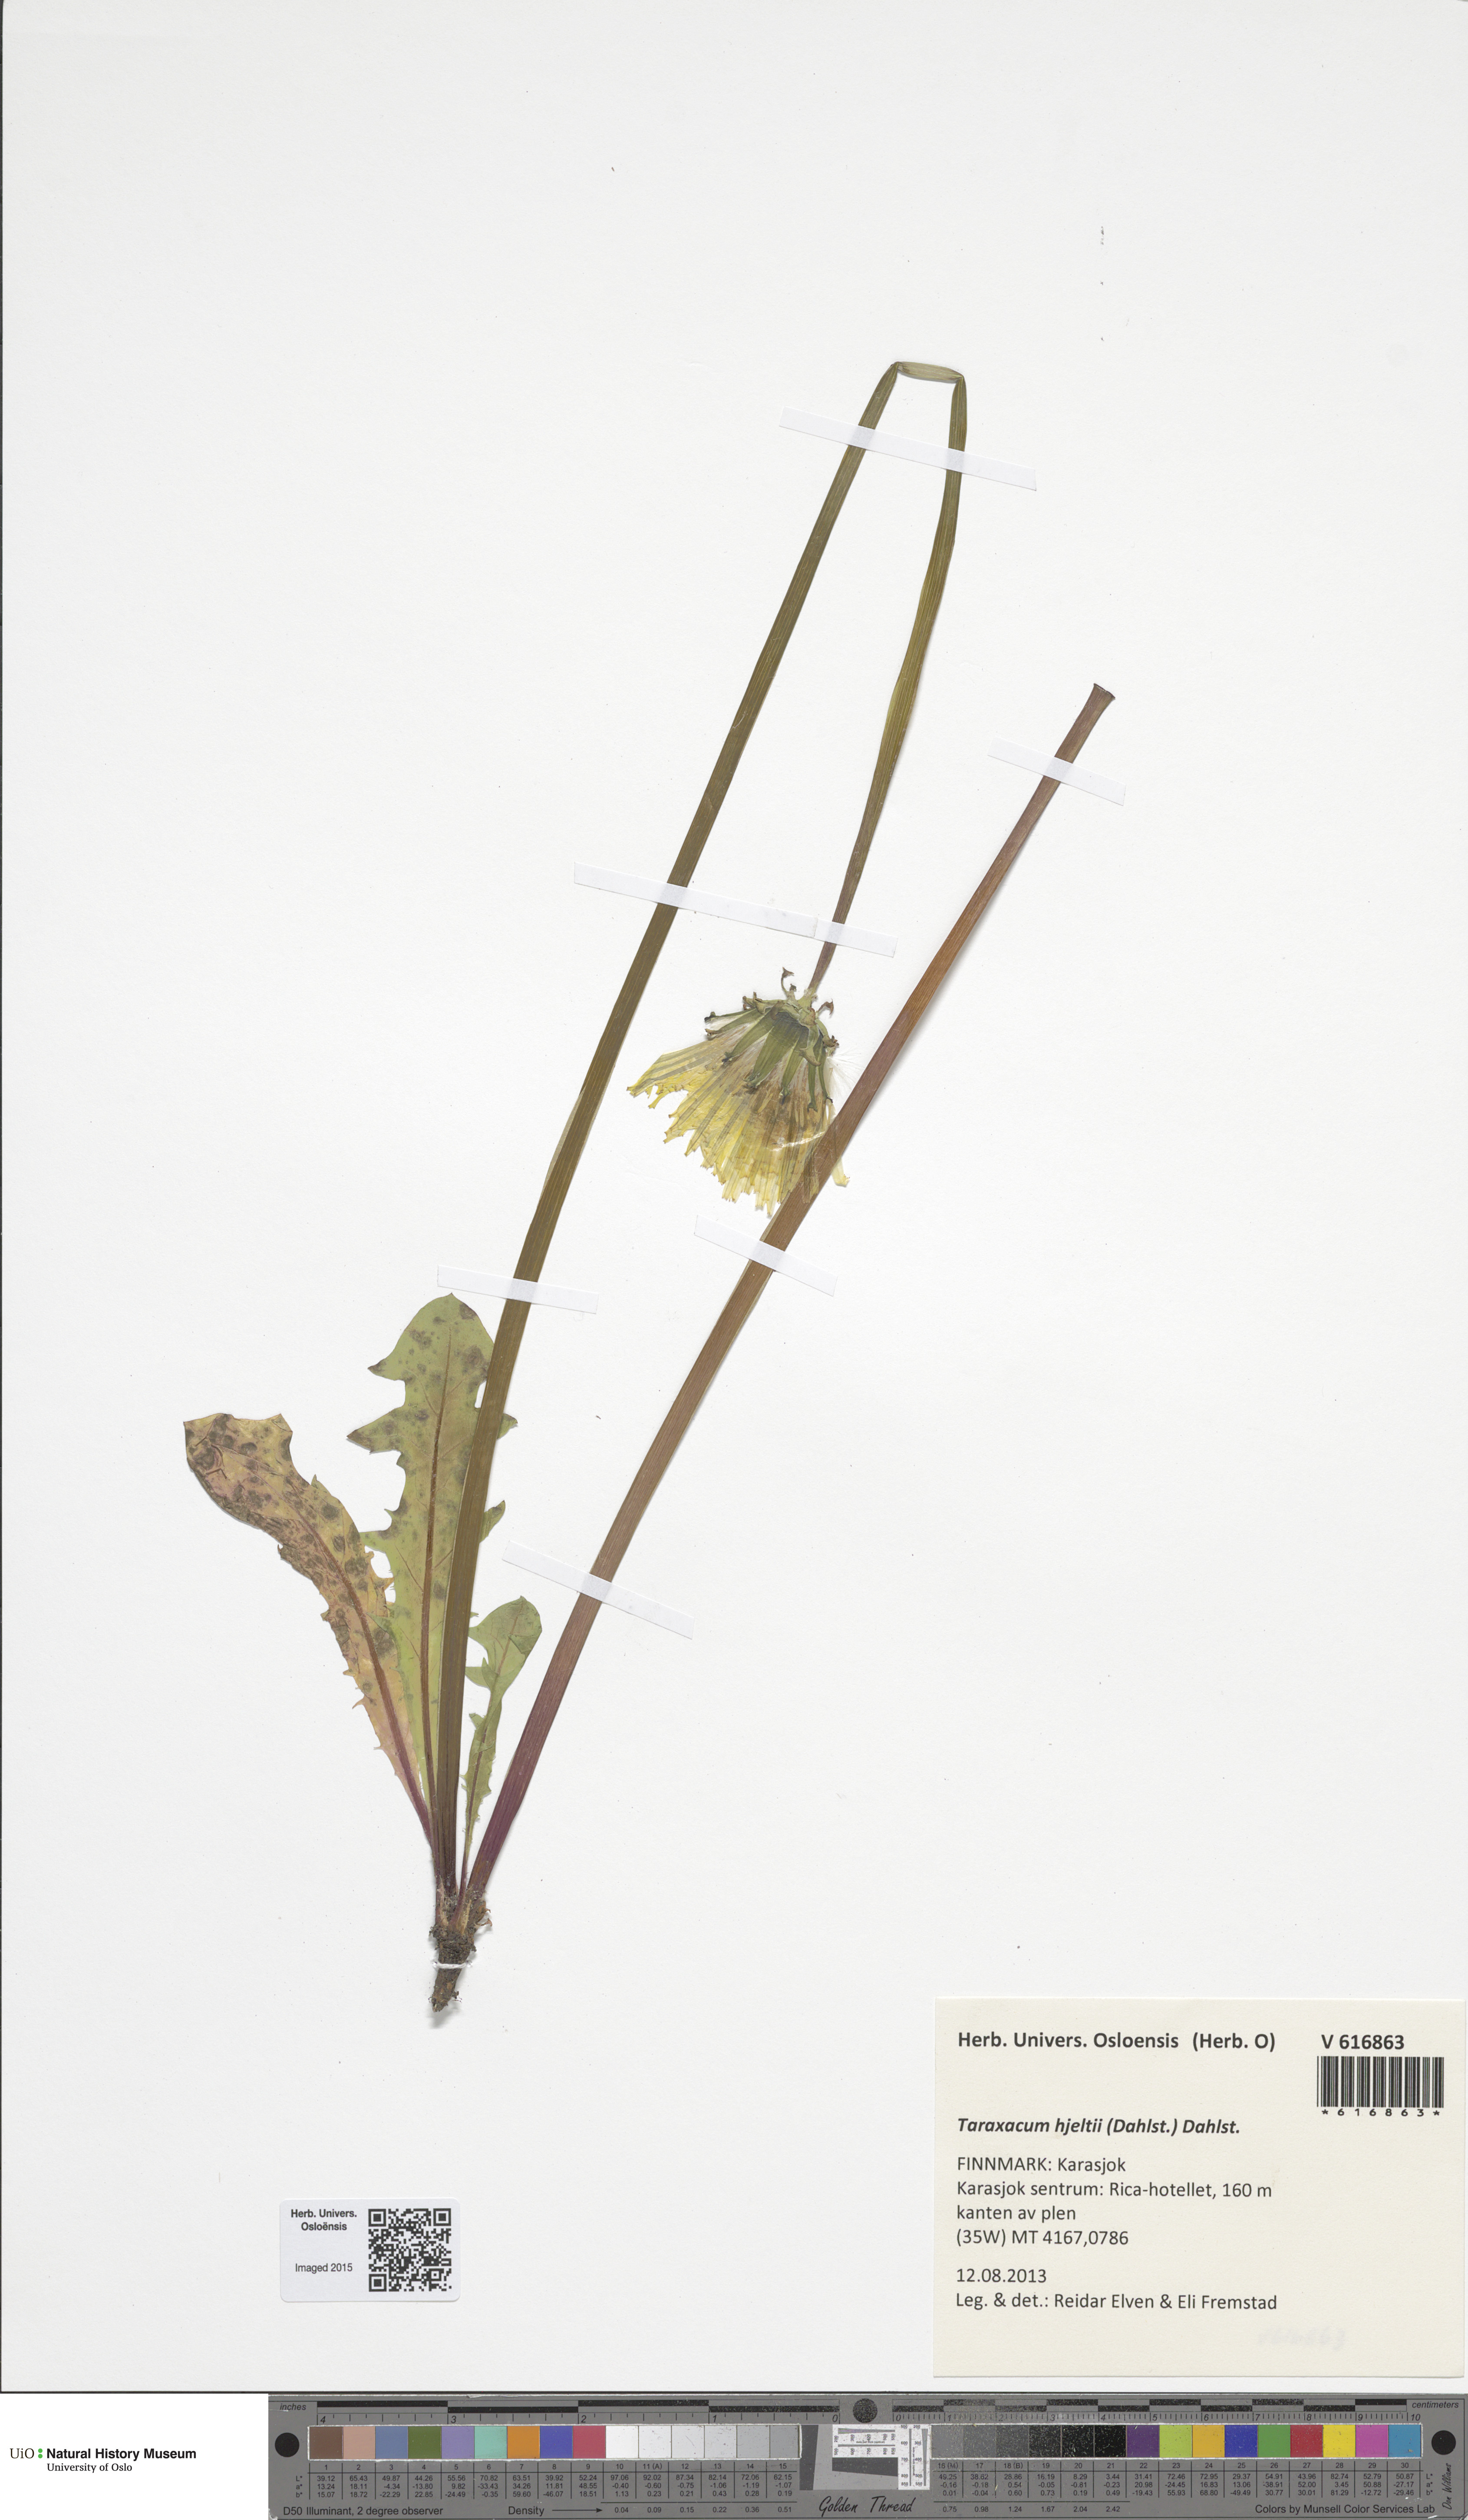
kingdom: Plantae
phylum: Tracheophyta
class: Magnoliopsida
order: Asterales
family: Asteraceae
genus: Taraxacum
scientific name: Taraxacum hjeltii
